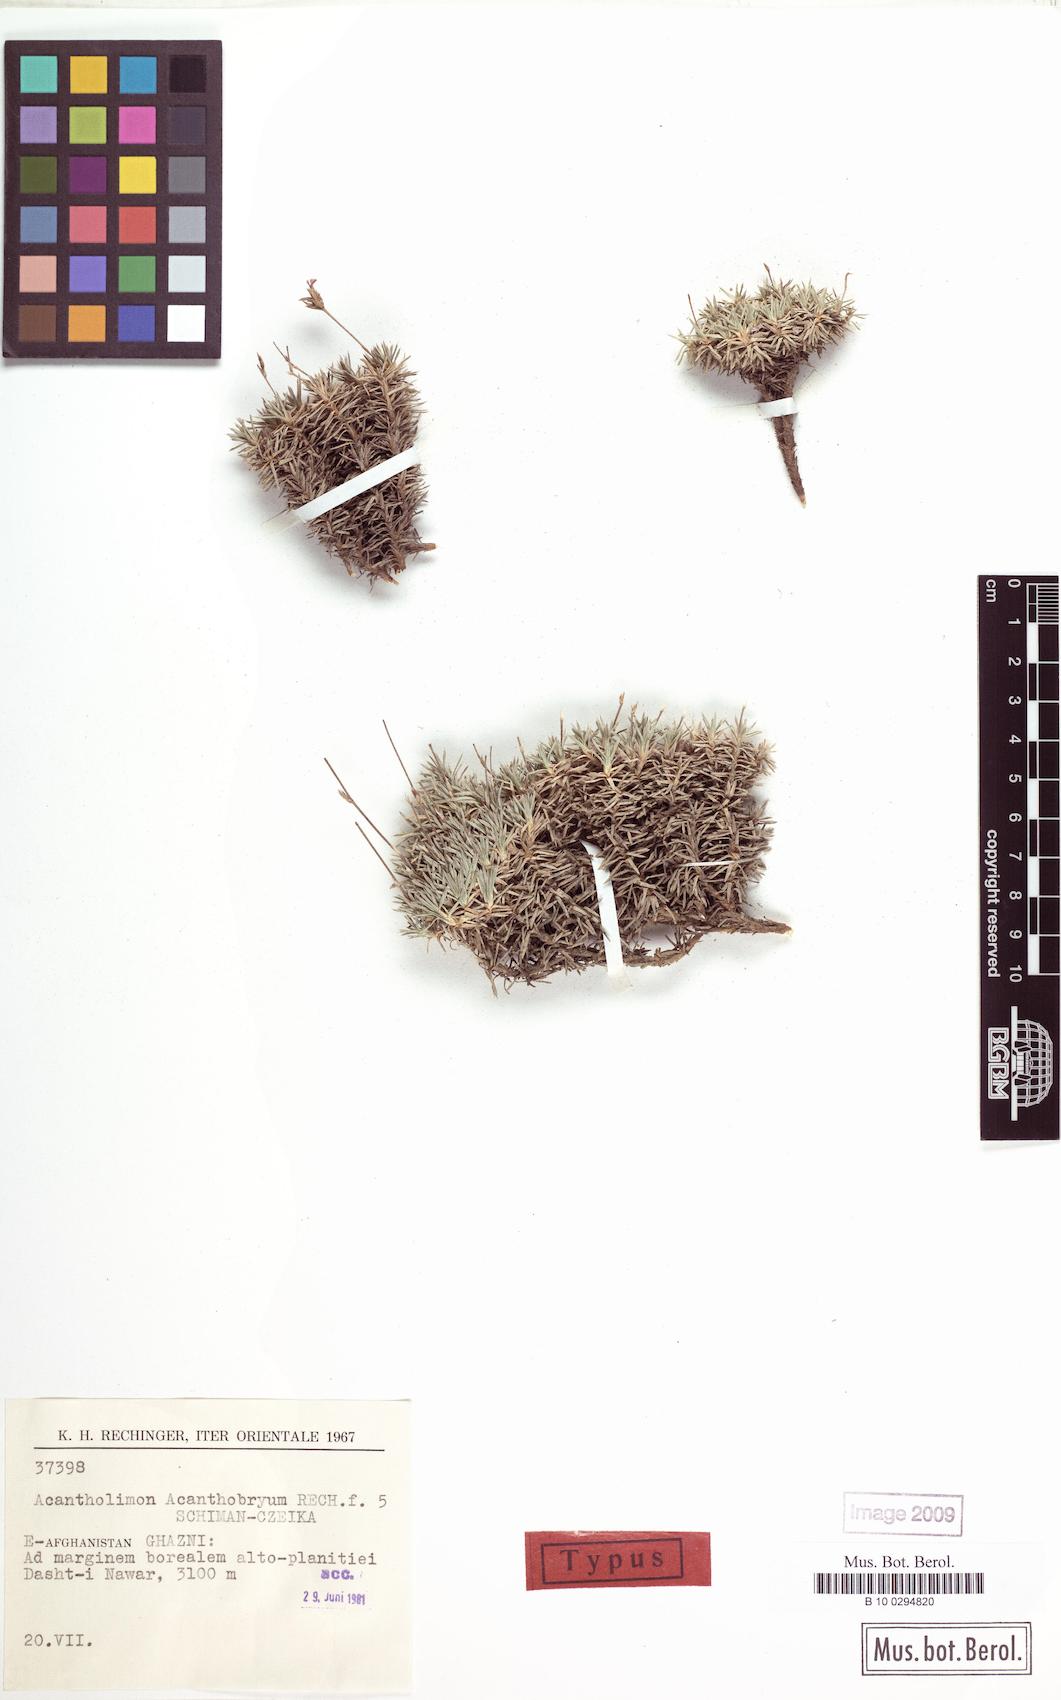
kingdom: Plantae
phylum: Tracheophyta
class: Magnoliopsida
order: Caryophyllales
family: Plumbaginaceae
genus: Acantholimon
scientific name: Acantholimon acanthobryum
